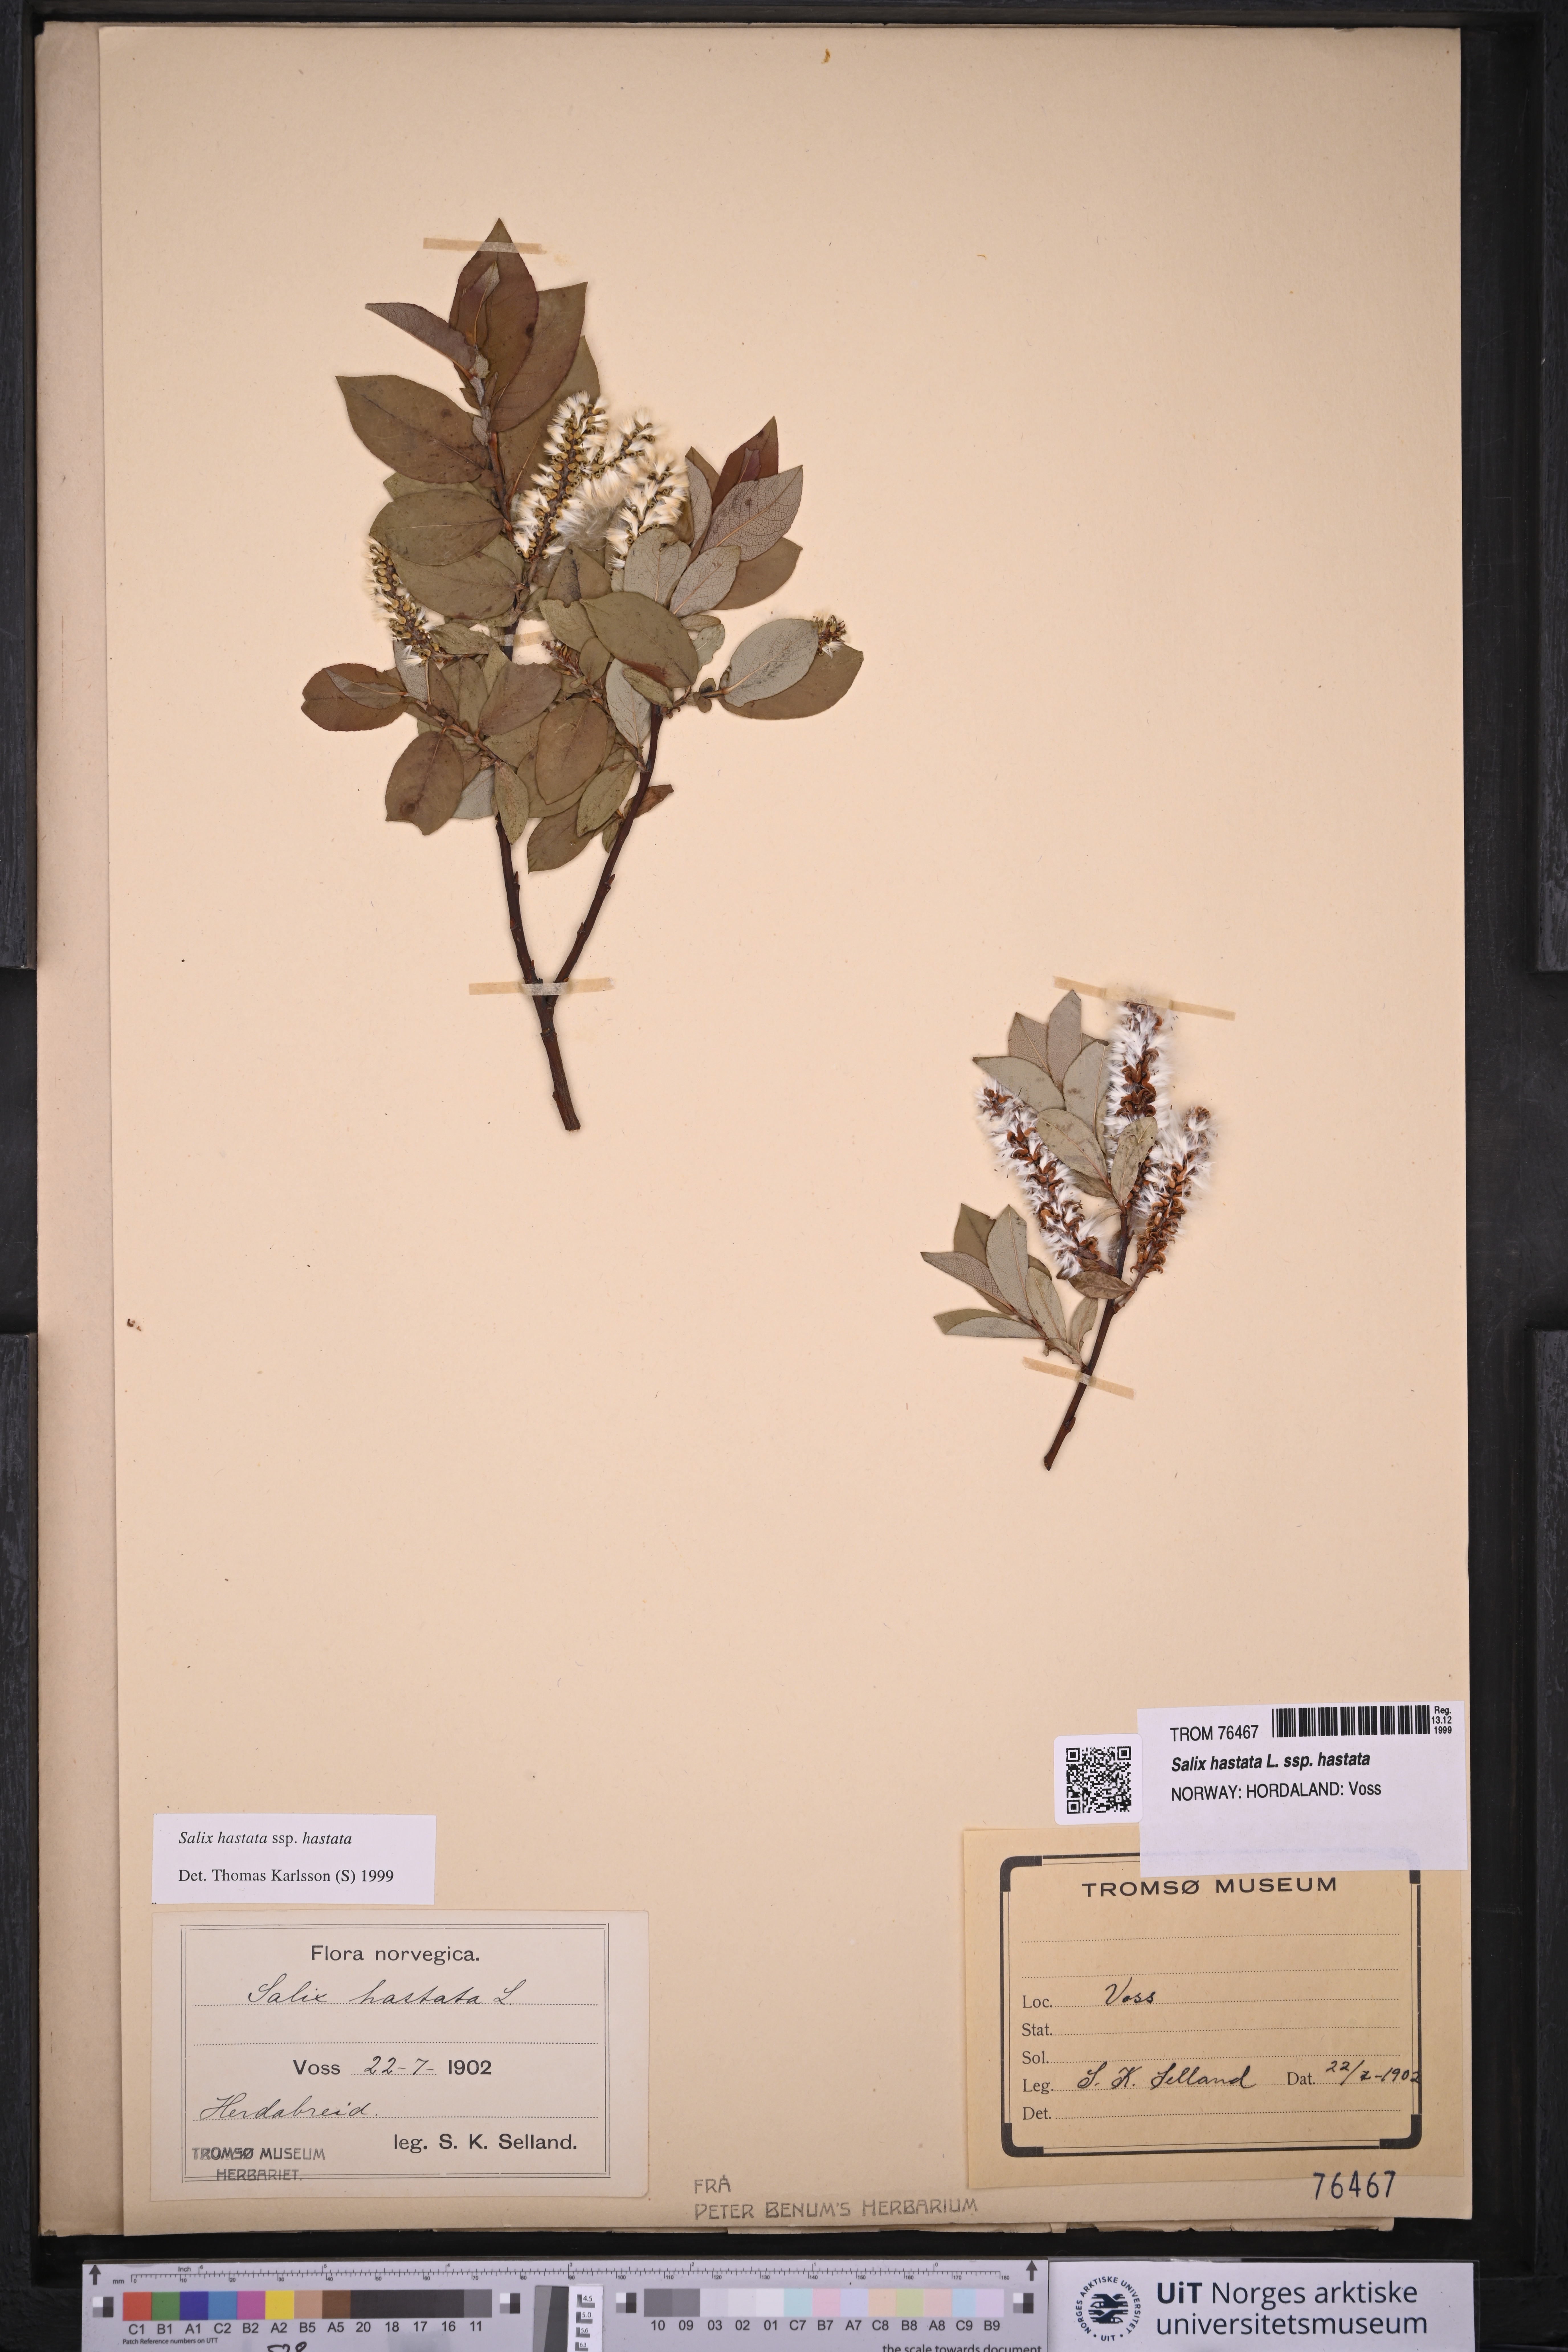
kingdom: Plantae
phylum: Tracheophyta
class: Magnoliopsida
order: Malpighiales
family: Salicaceae
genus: Salix
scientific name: Salix hastata
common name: Halberd willow
